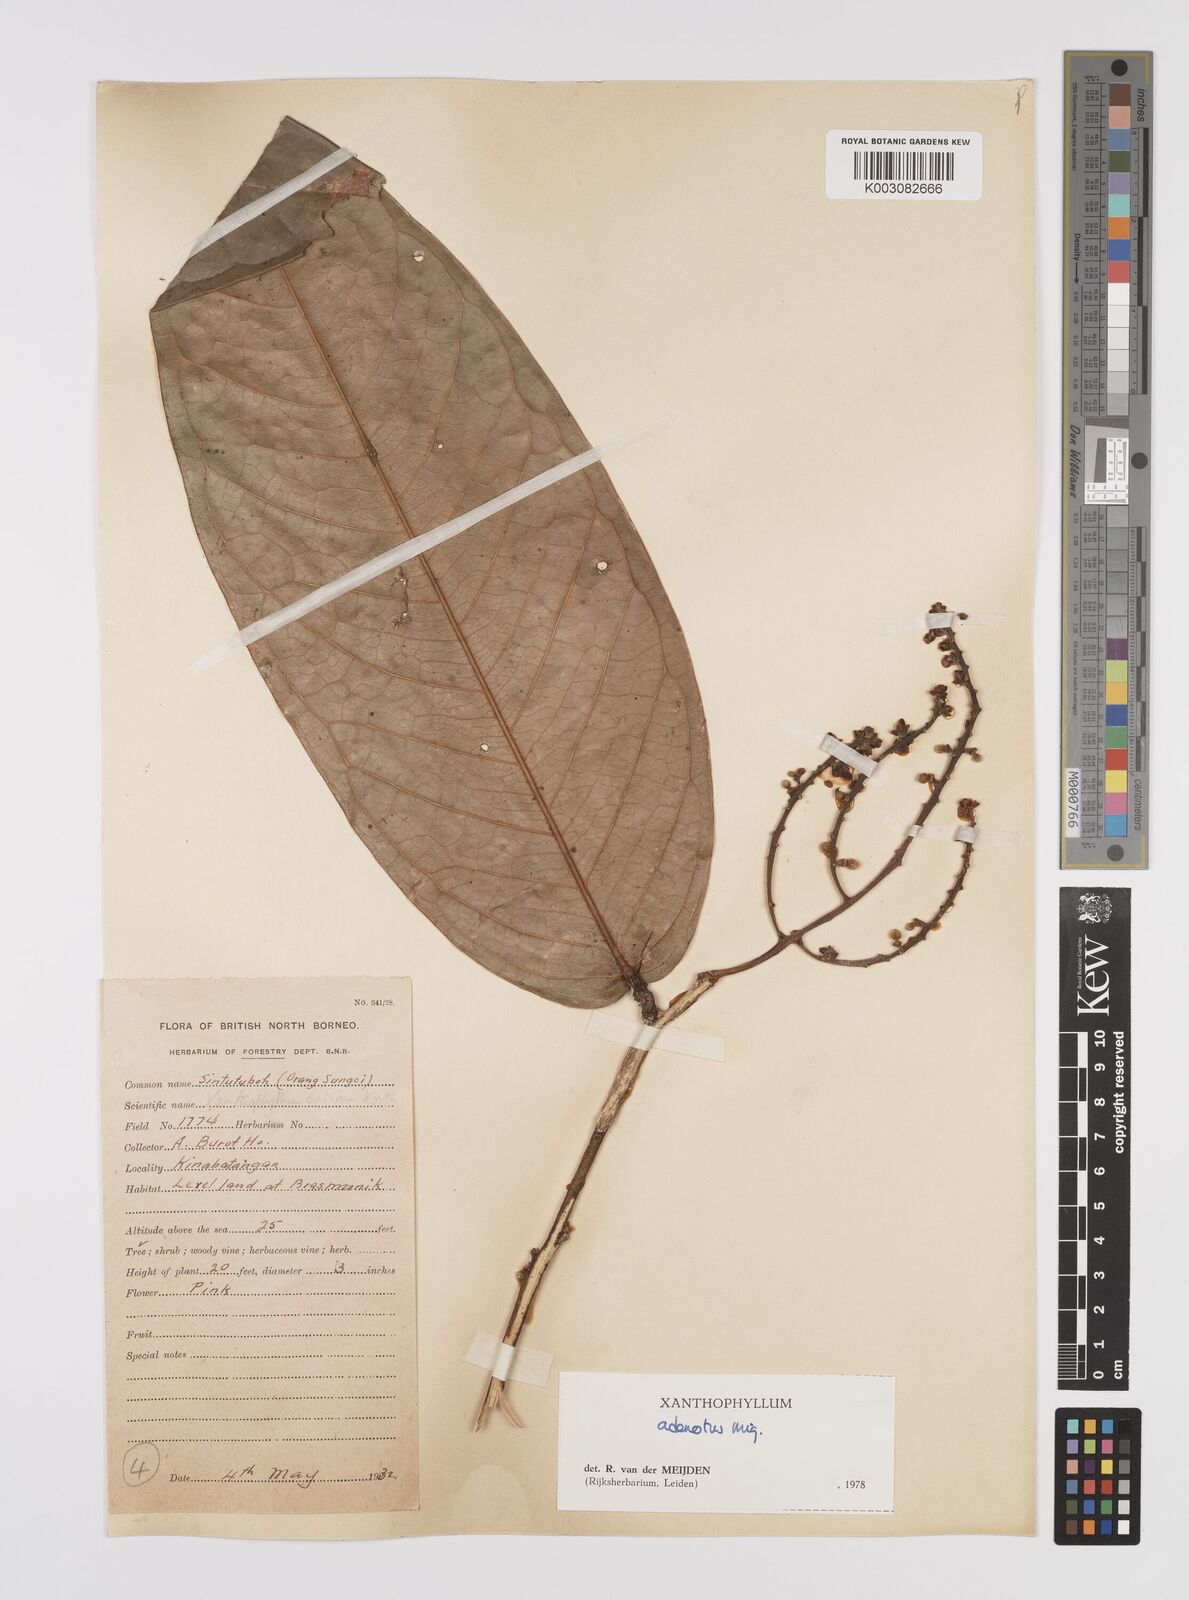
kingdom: Plantae
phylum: Tracheophyta
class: Magnoliopsida
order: Fabales
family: Polygalaceae
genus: Xanthophyllum
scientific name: Xanthophyllum adenotus
